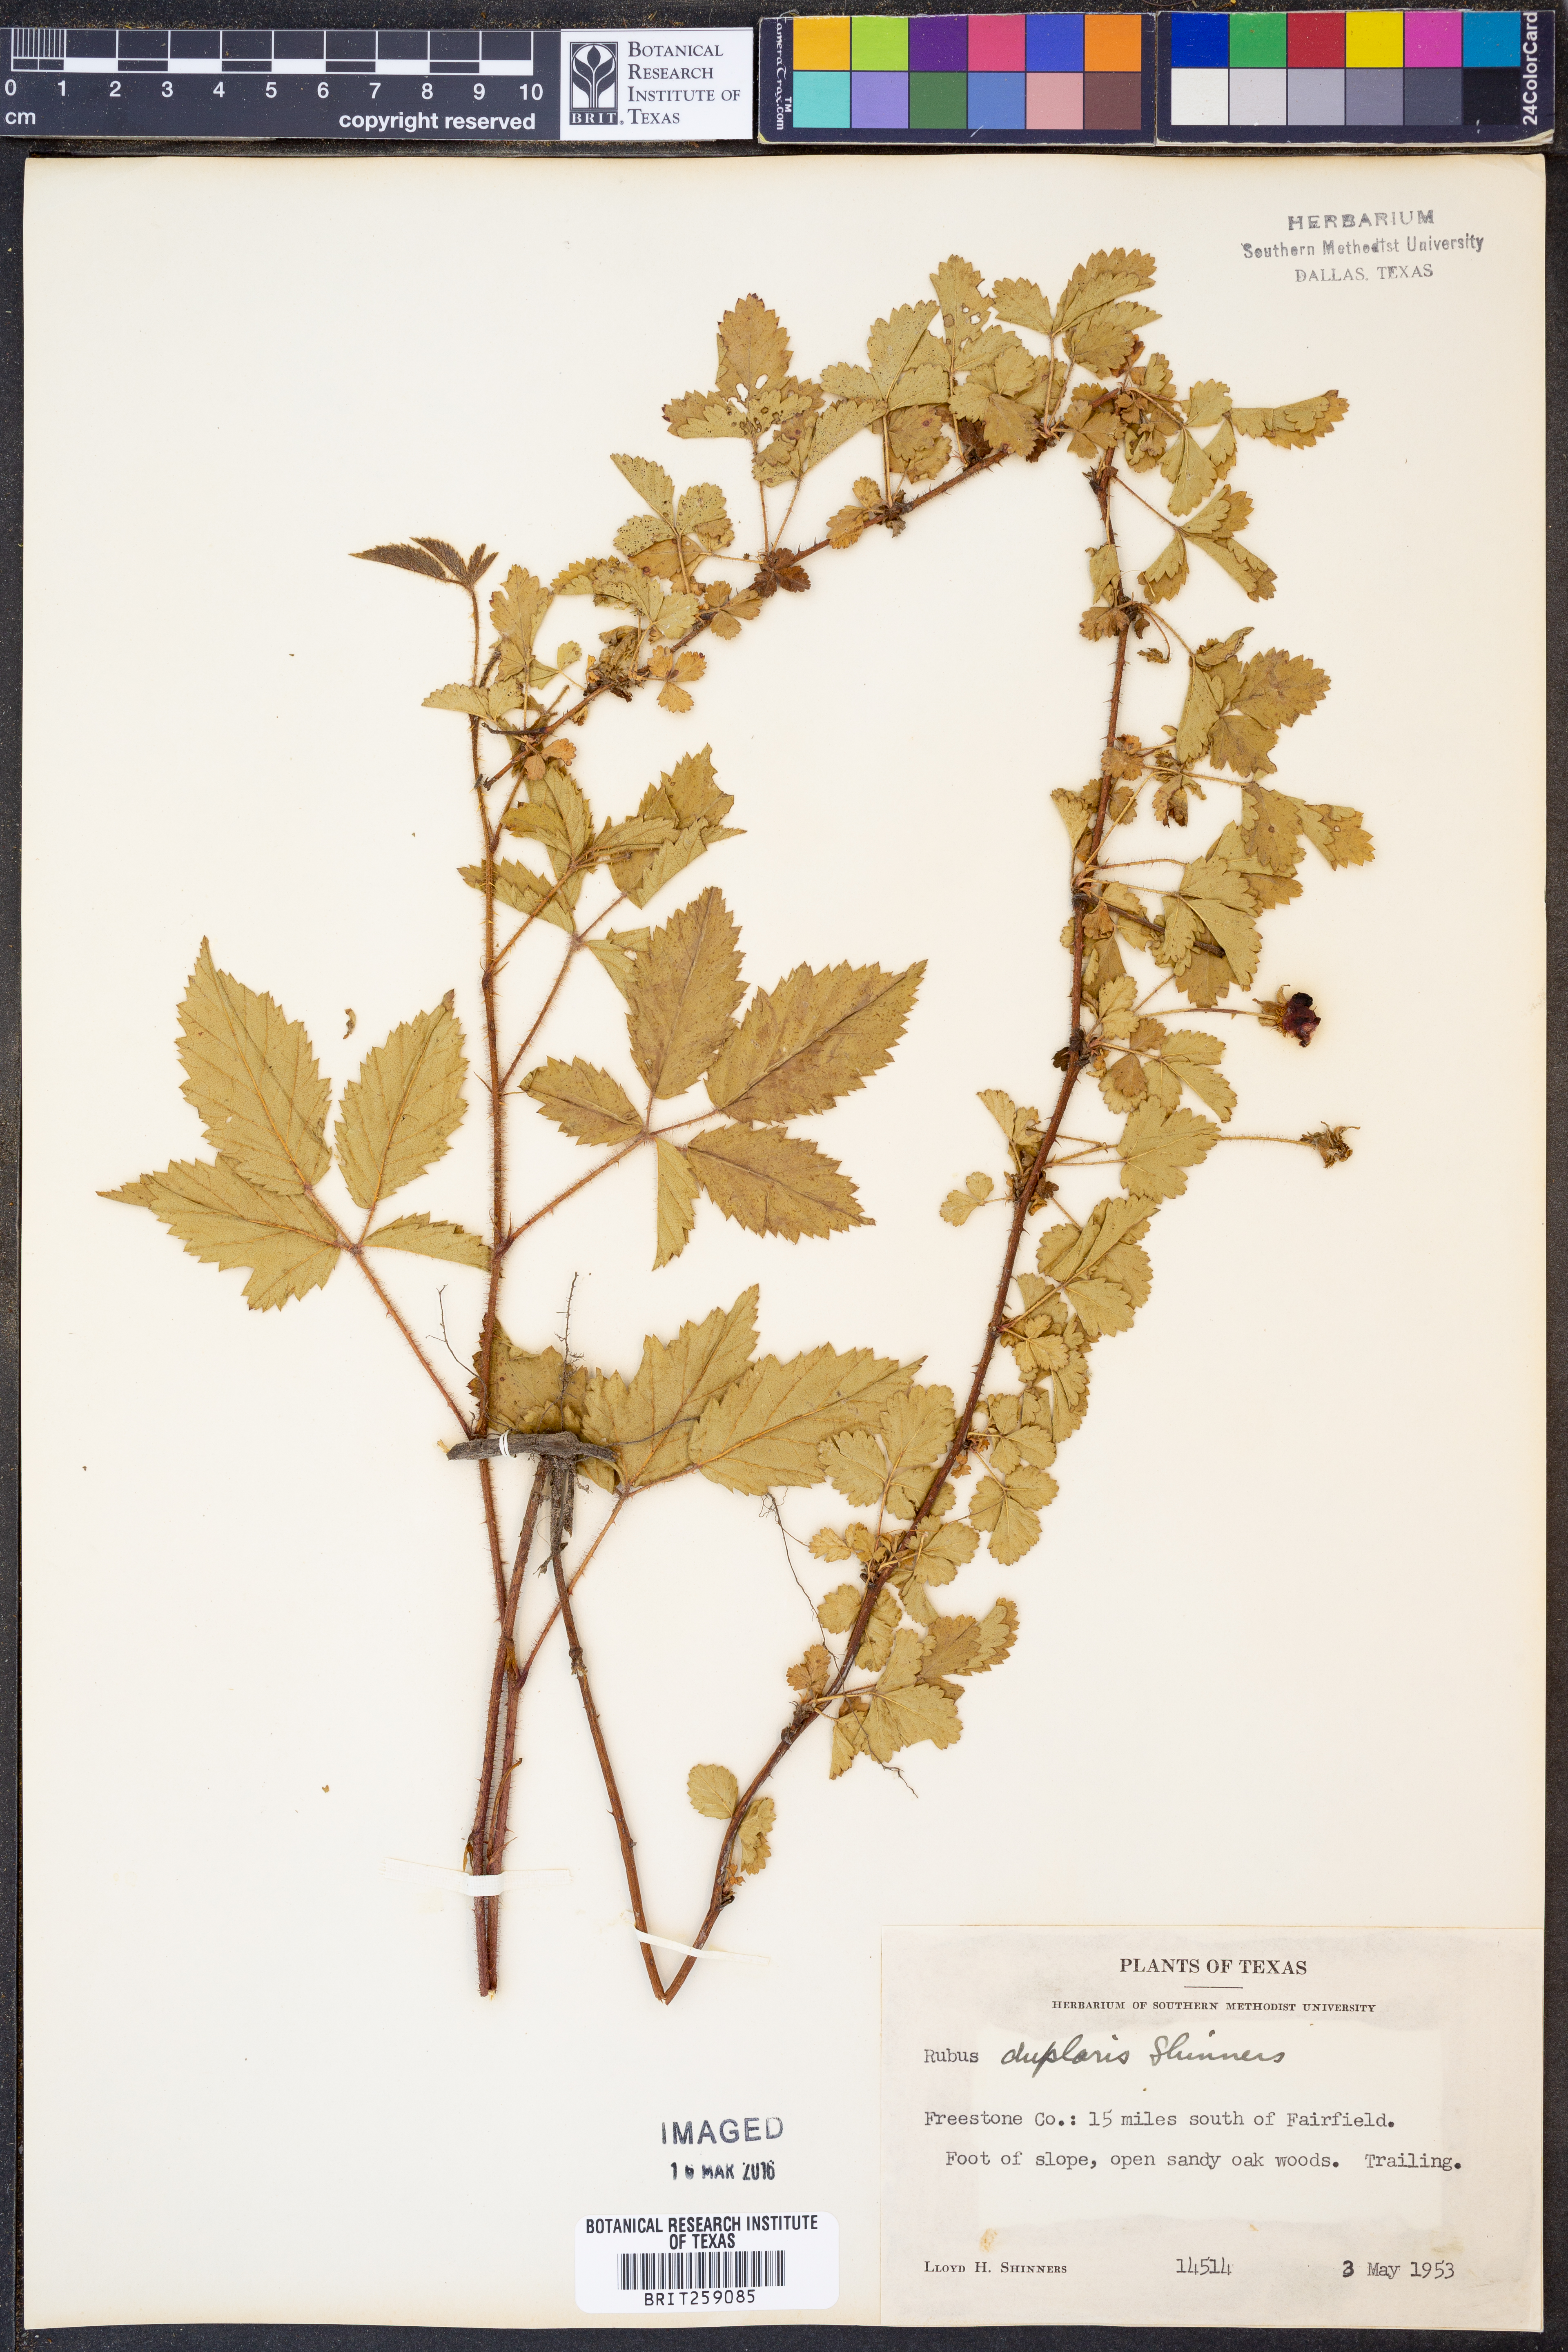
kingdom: Plantae
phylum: Tracheophyta
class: Magnoliopsida
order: Rosales
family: Rosaceae
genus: Rubus
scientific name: Rubus riograndis
